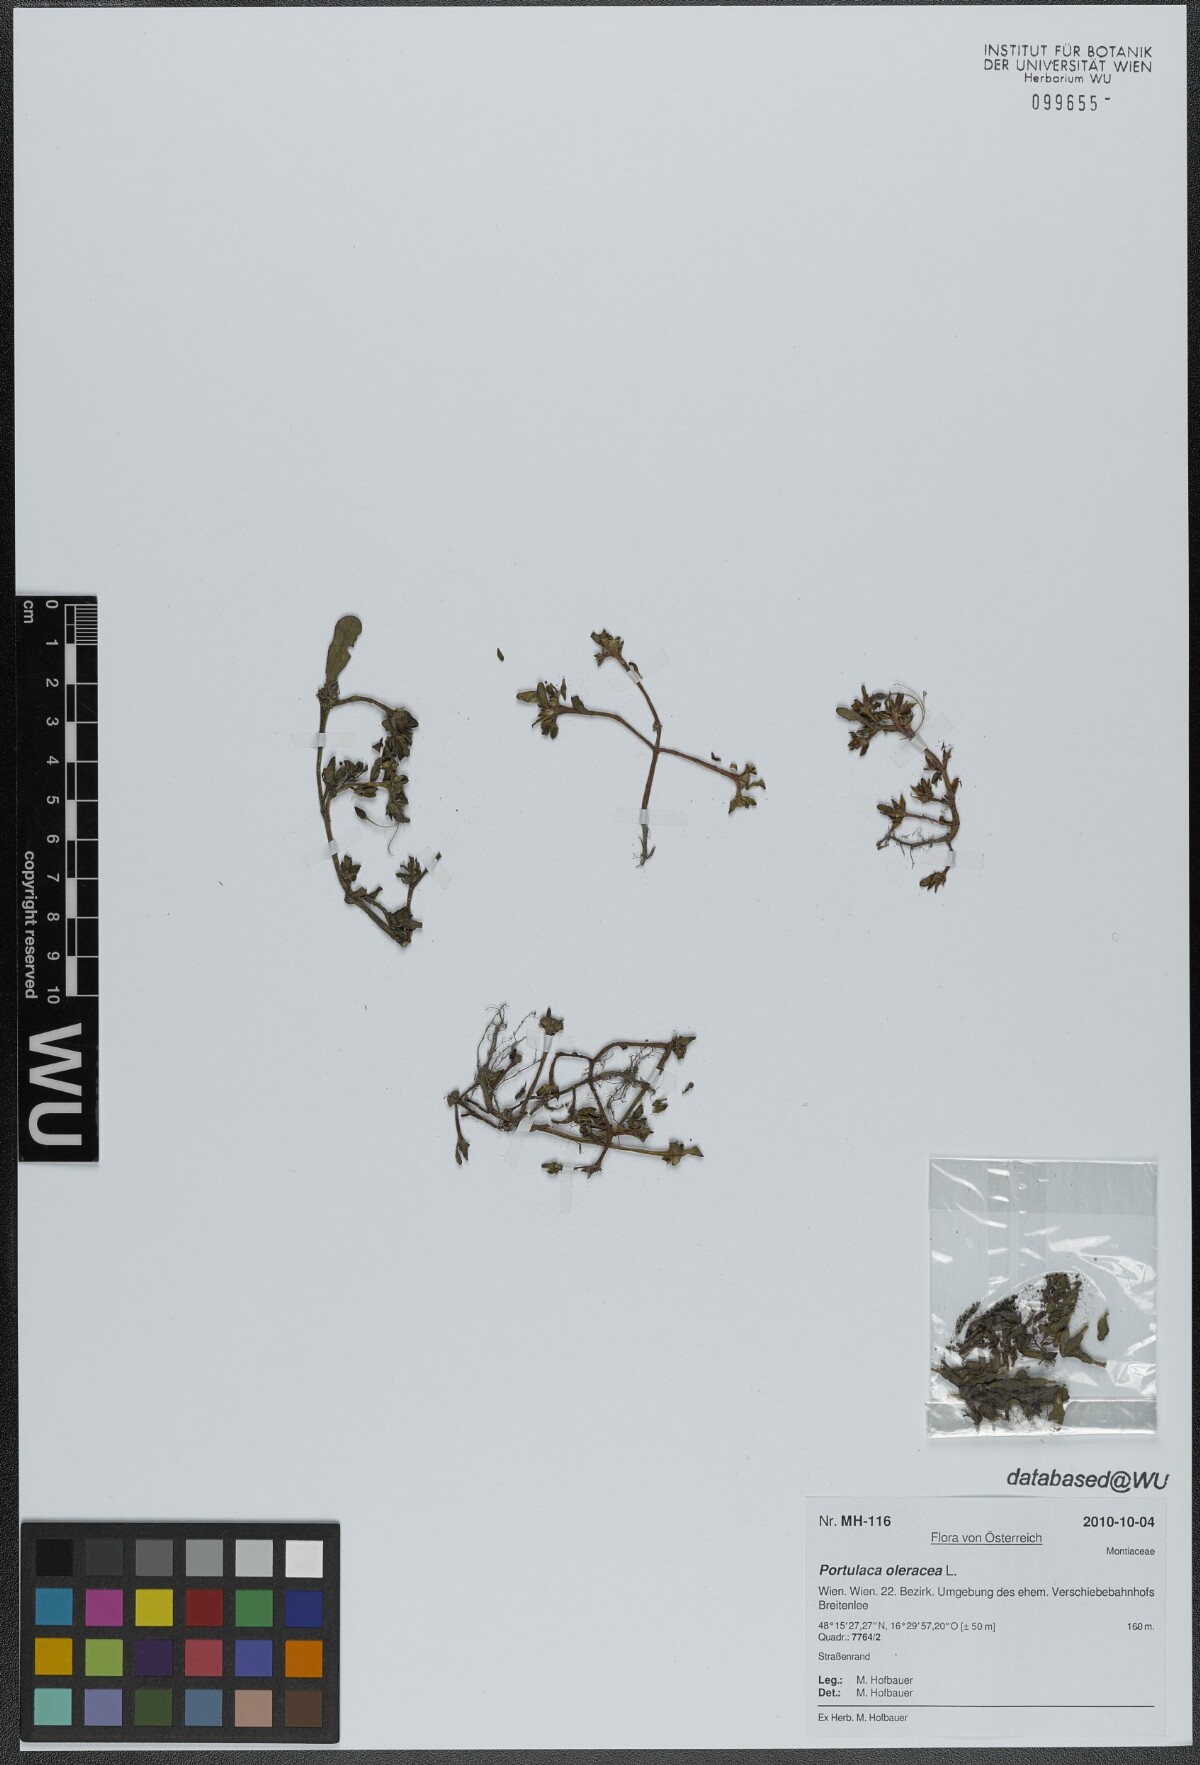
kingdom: Plantae
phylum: Tracheophyta
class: Magnoliopsida
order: Caryophyllales
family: Portulacaceae
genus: Portulaca
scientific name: Portulaca oleracea
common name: Common purslane
